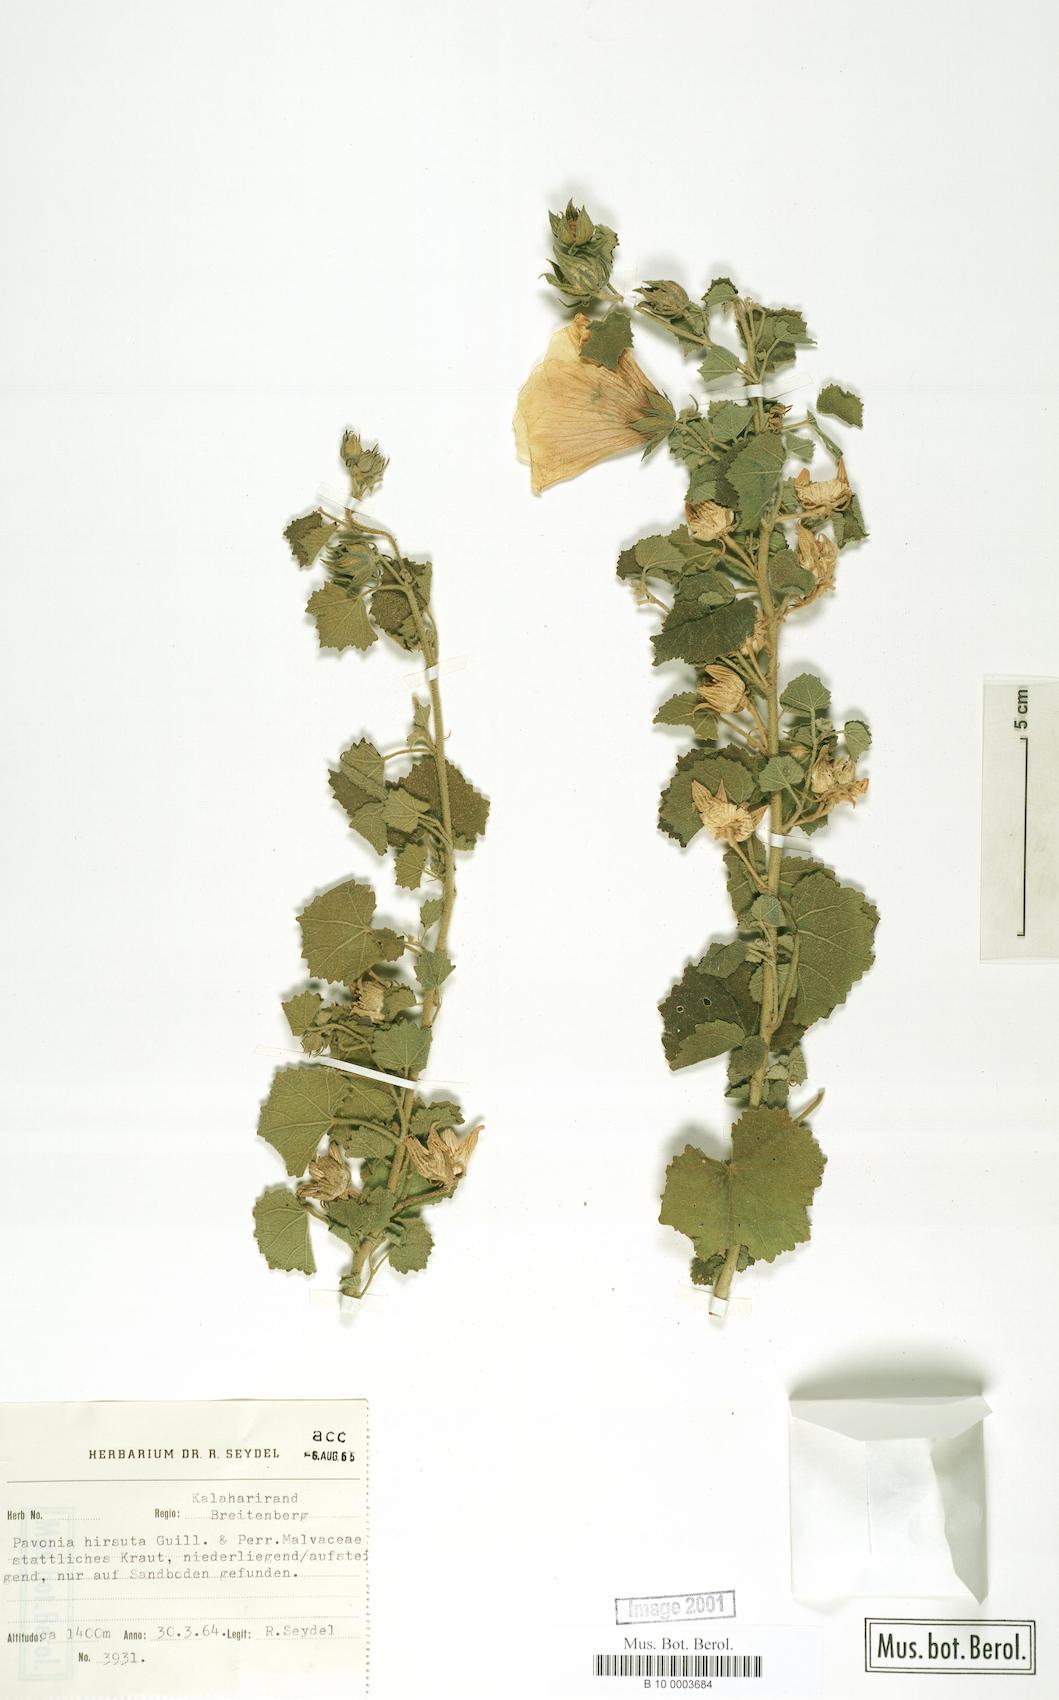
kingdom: Plantae
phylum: Tracheophyta
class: Magnoliopsida
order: Malvales
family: Malvaceae
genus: Pavonia
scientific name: Pavonia senegalensis
